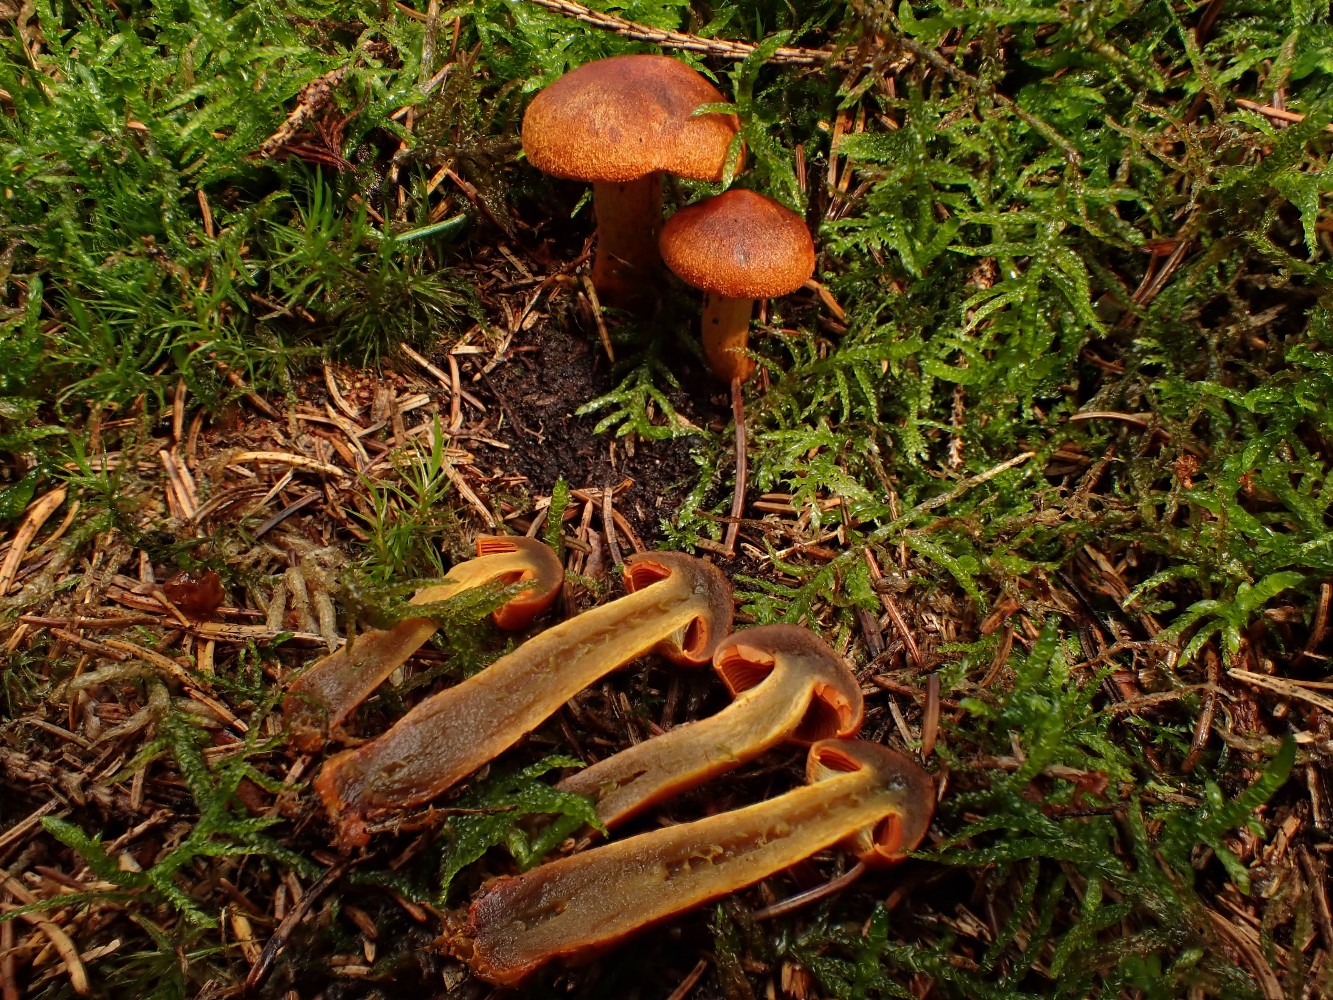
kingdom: Fungi
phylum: Basidiomycota
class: Agaricomycetes
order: Agaricales
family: Cortinariaceae
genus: Cortinarius
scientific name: Cortinarius malicorius
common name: grønkødet slørhat
